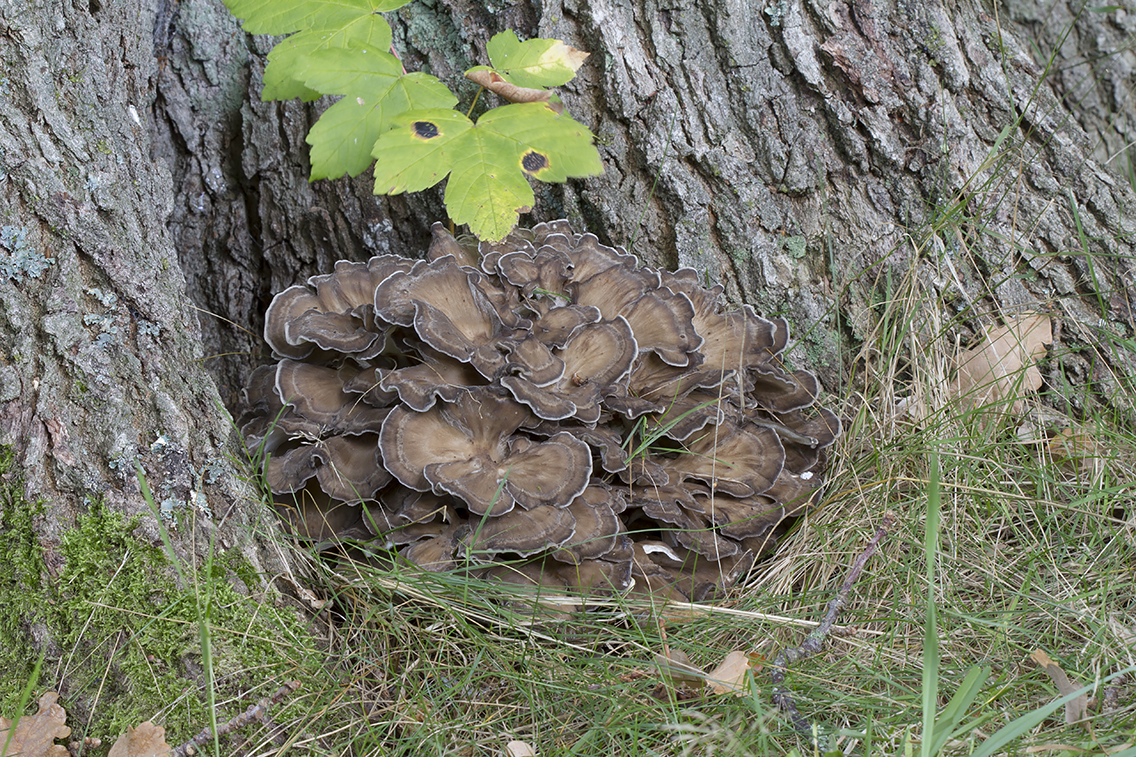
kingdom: Fungi
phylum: Basidiomycota
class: Agaricomycetes
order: Polyporales
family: Grifolaceae
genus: Grifola
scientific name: Grifola frondosa
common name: tueporesvamp
